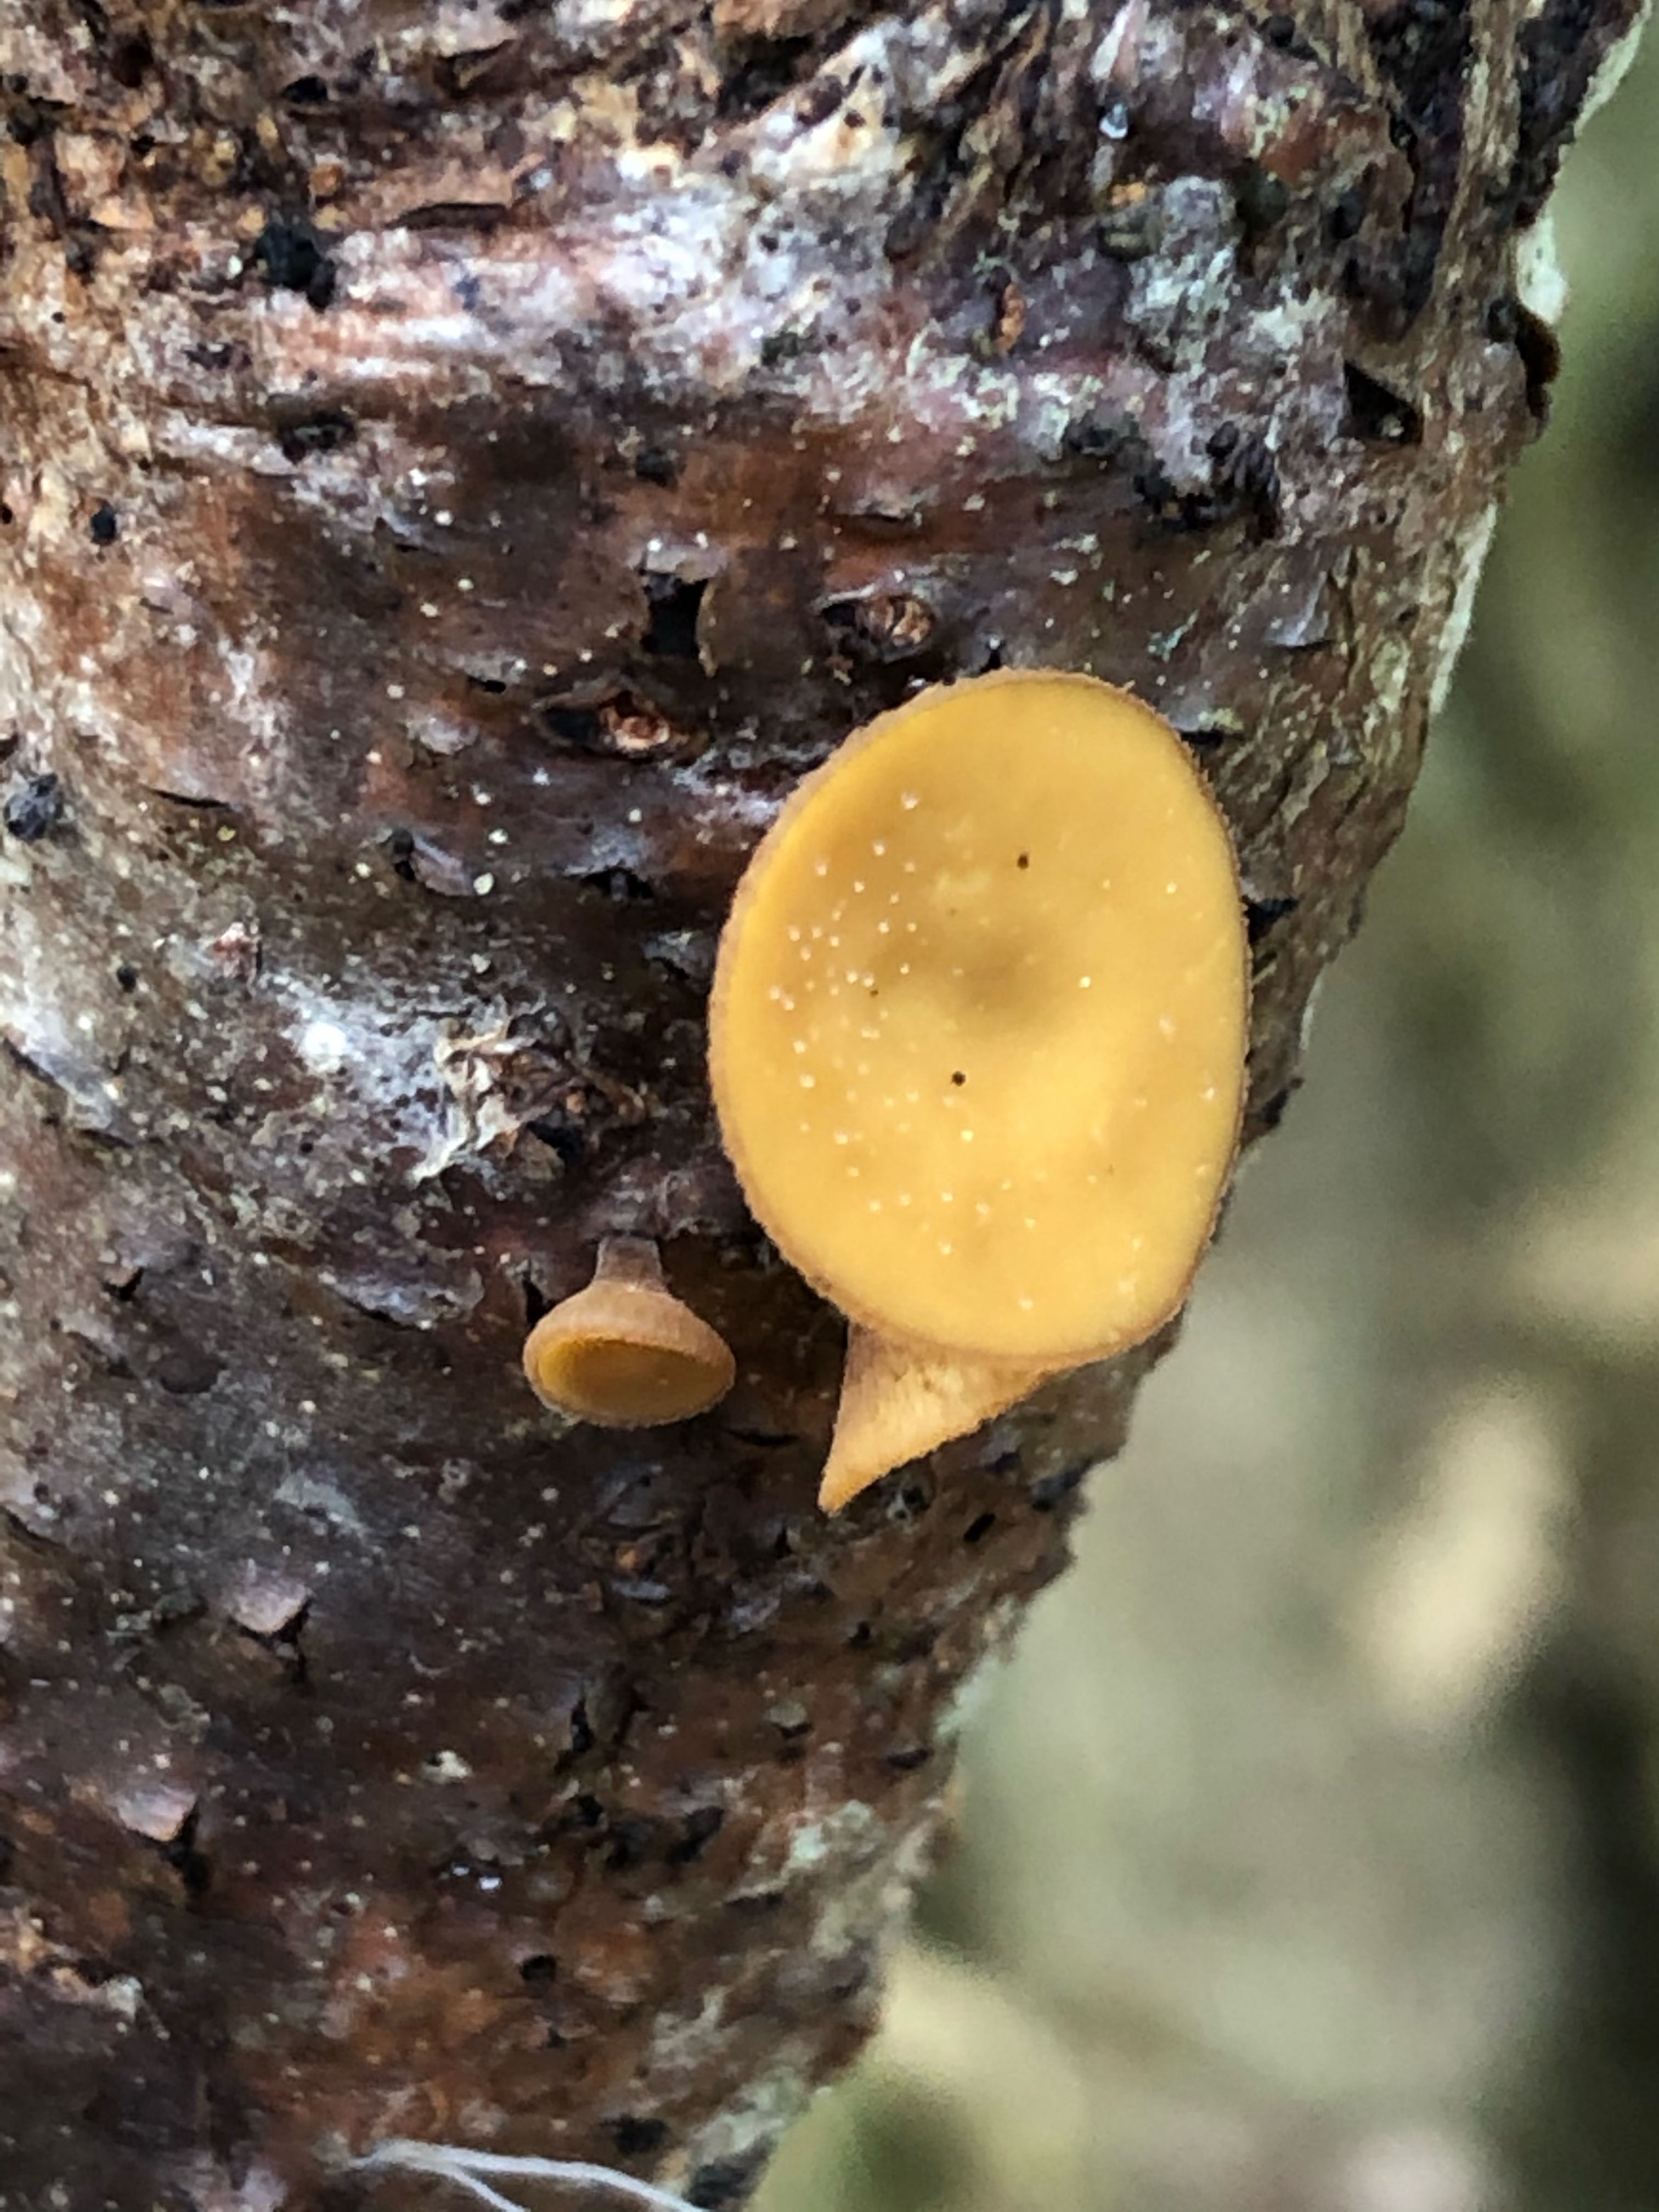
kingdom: Fungi
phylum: Ascomycota
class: Leotiomycetes
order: Helotiales
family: Rutstroemiaceae
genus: Rutstroemia
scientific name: Rutstroemia firma
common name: gren-brunskive
